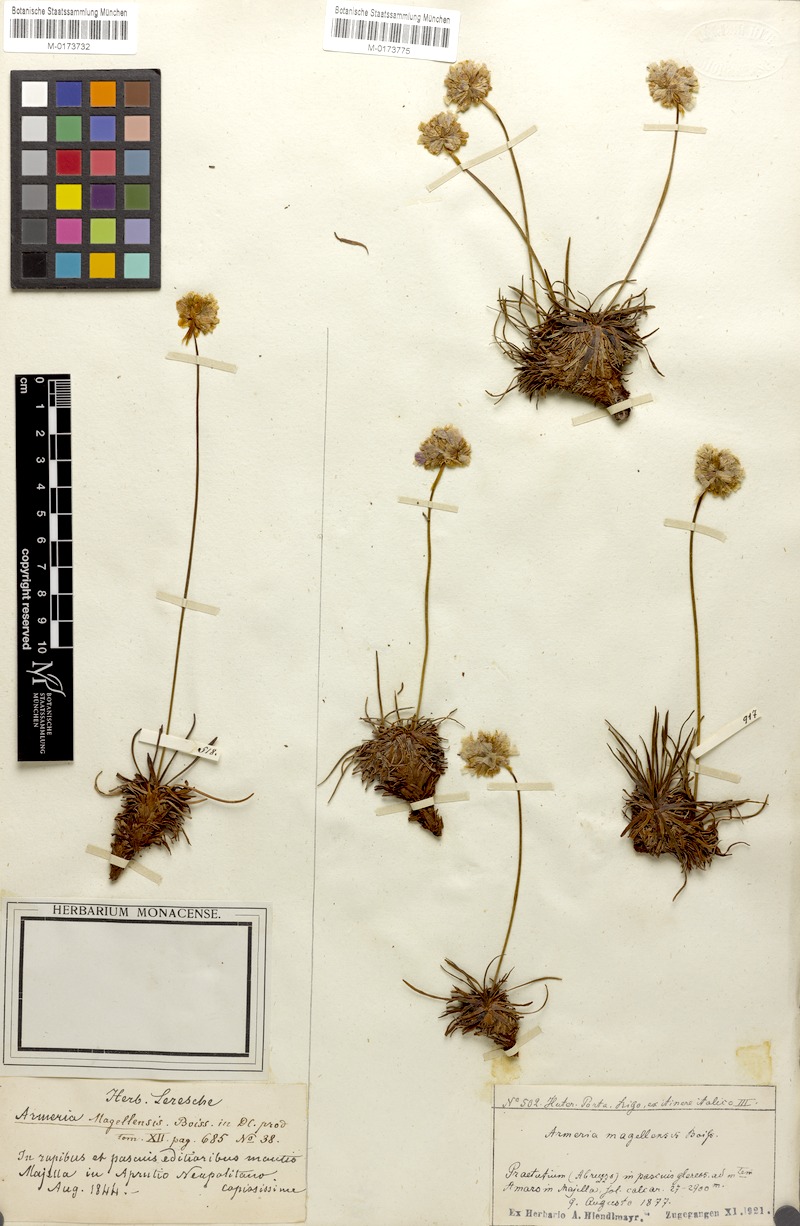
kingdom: Plantae
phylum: Tracheophyta
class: Magnoliopsida
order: Caryophyllales
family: Plumbaginaceae
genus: Armeria
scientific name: Armeria nebrodensis
